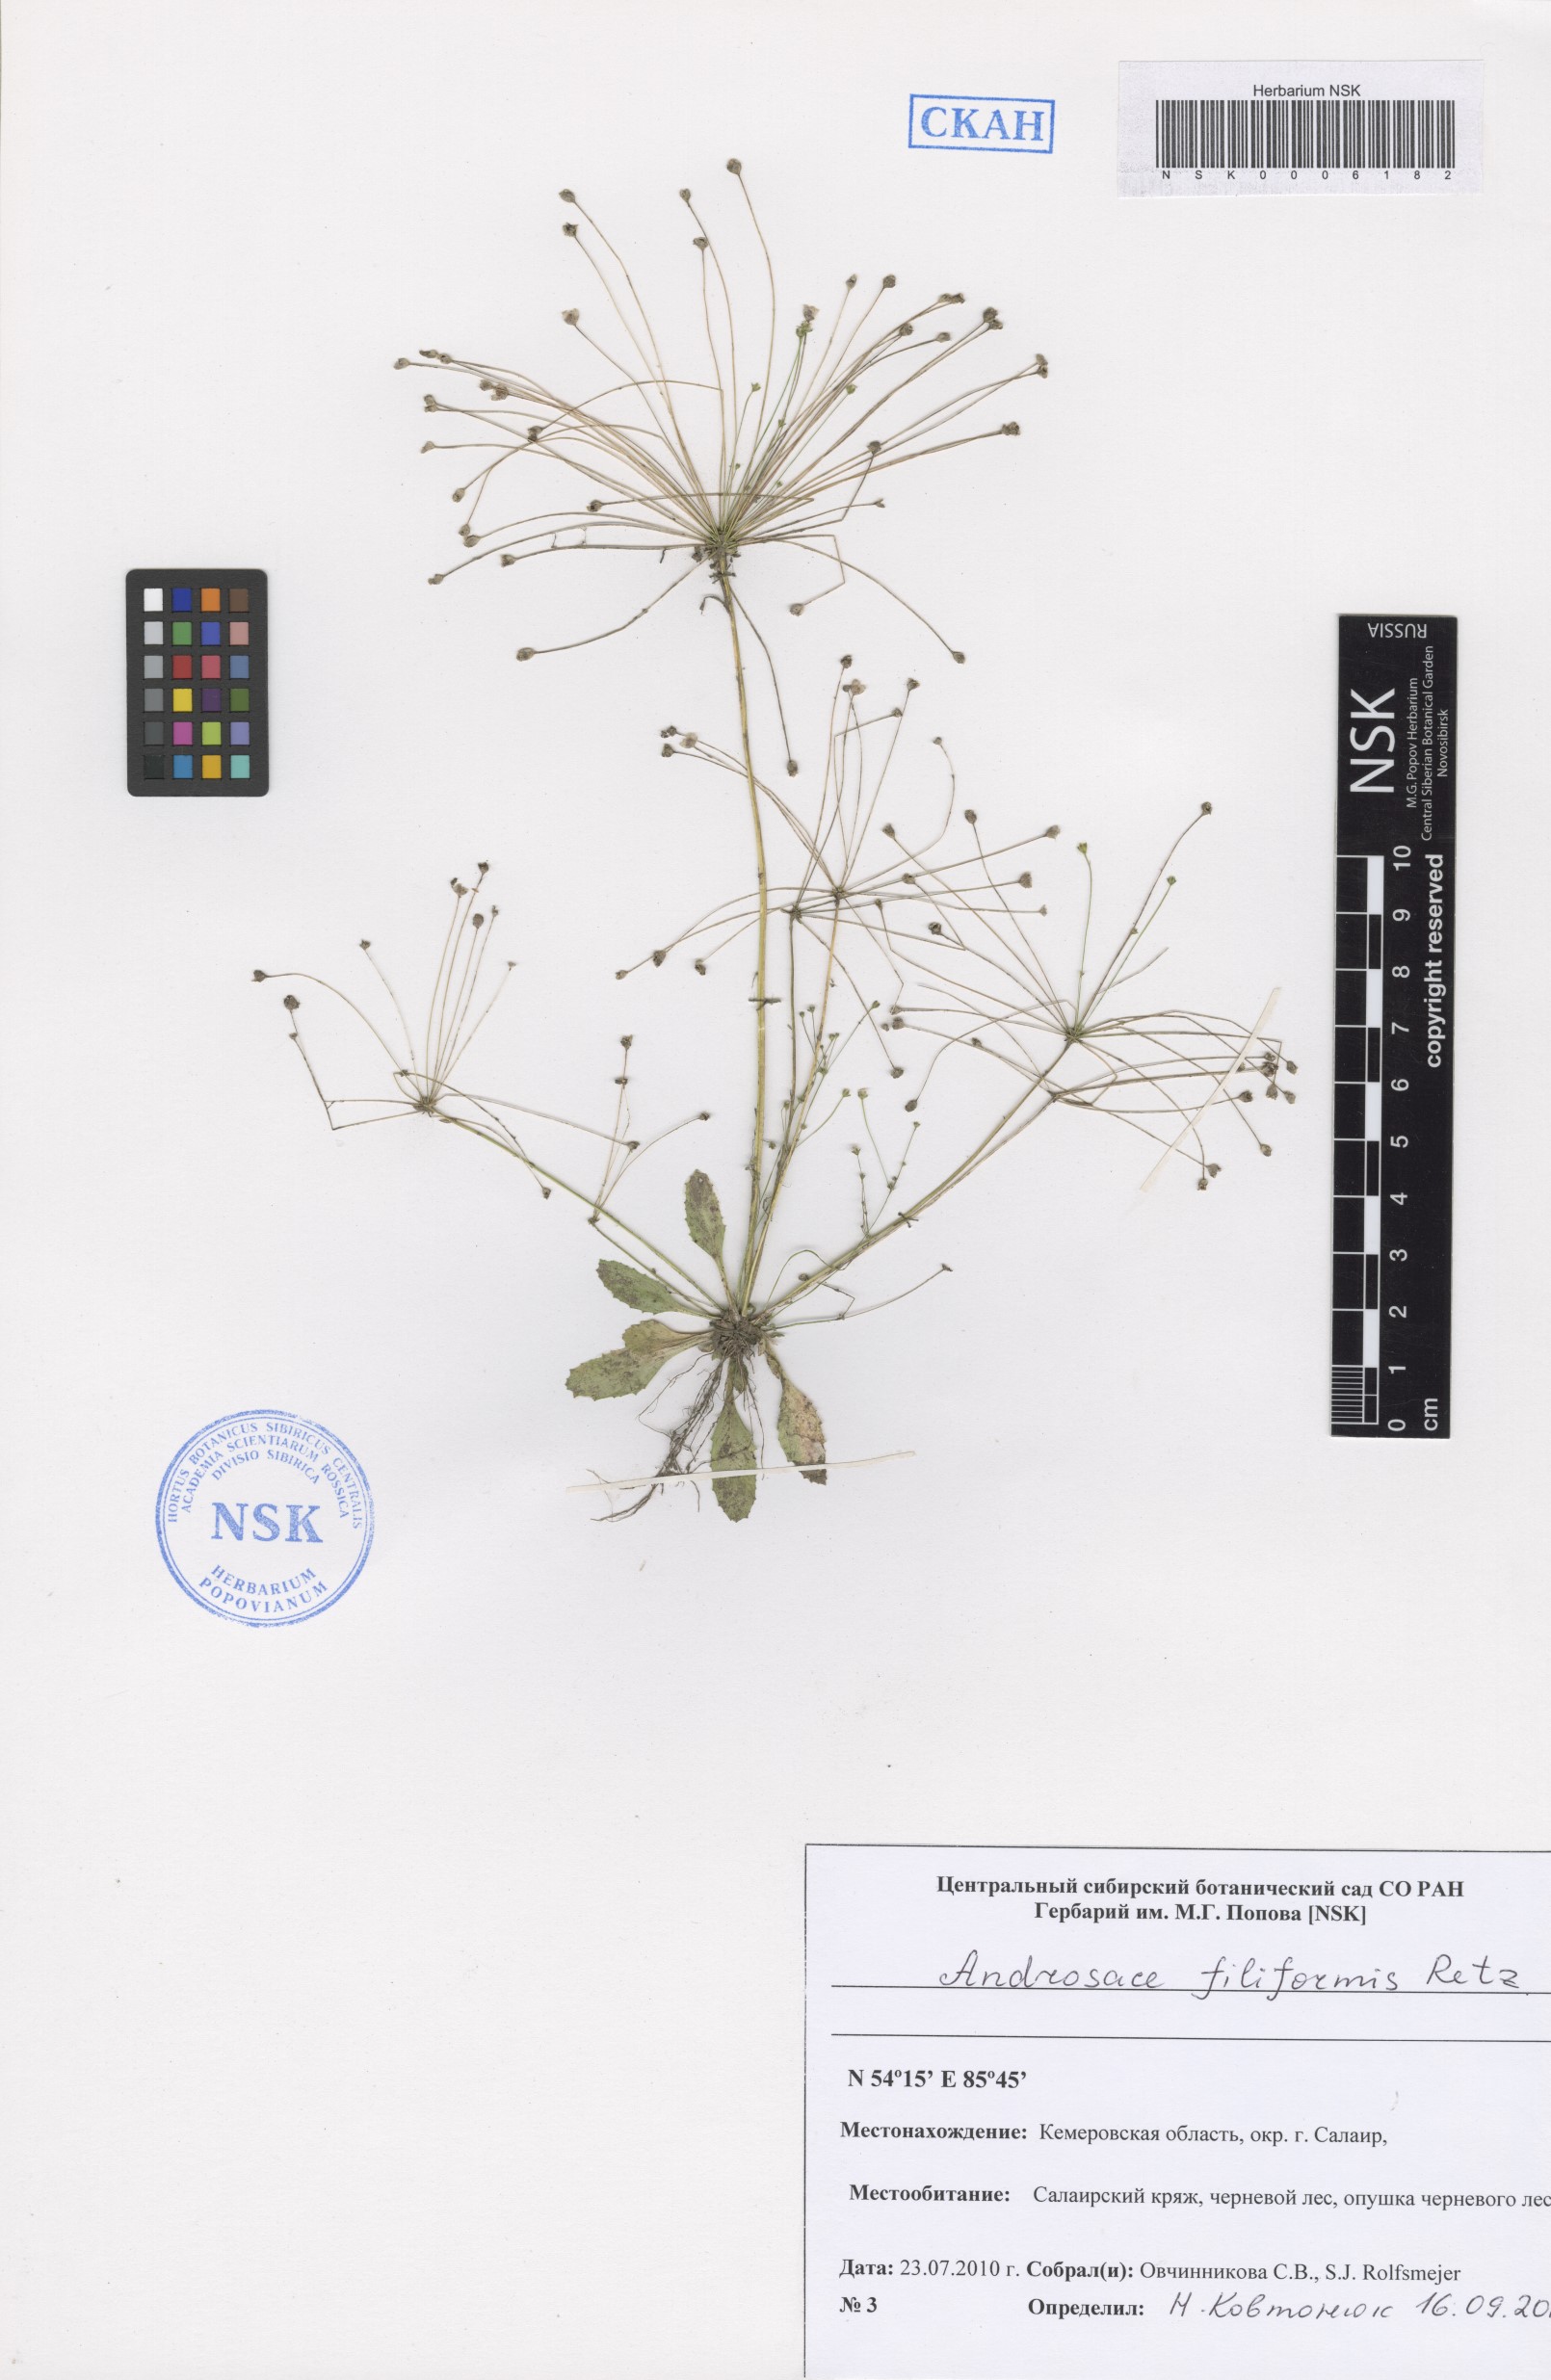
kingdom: Plantae
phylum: Tracheophyta
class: Magnoliopsida
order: Ericales
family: Primulaceae
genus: Androsace
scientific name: Androsace filiformis
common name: Filiform rock jasmine
